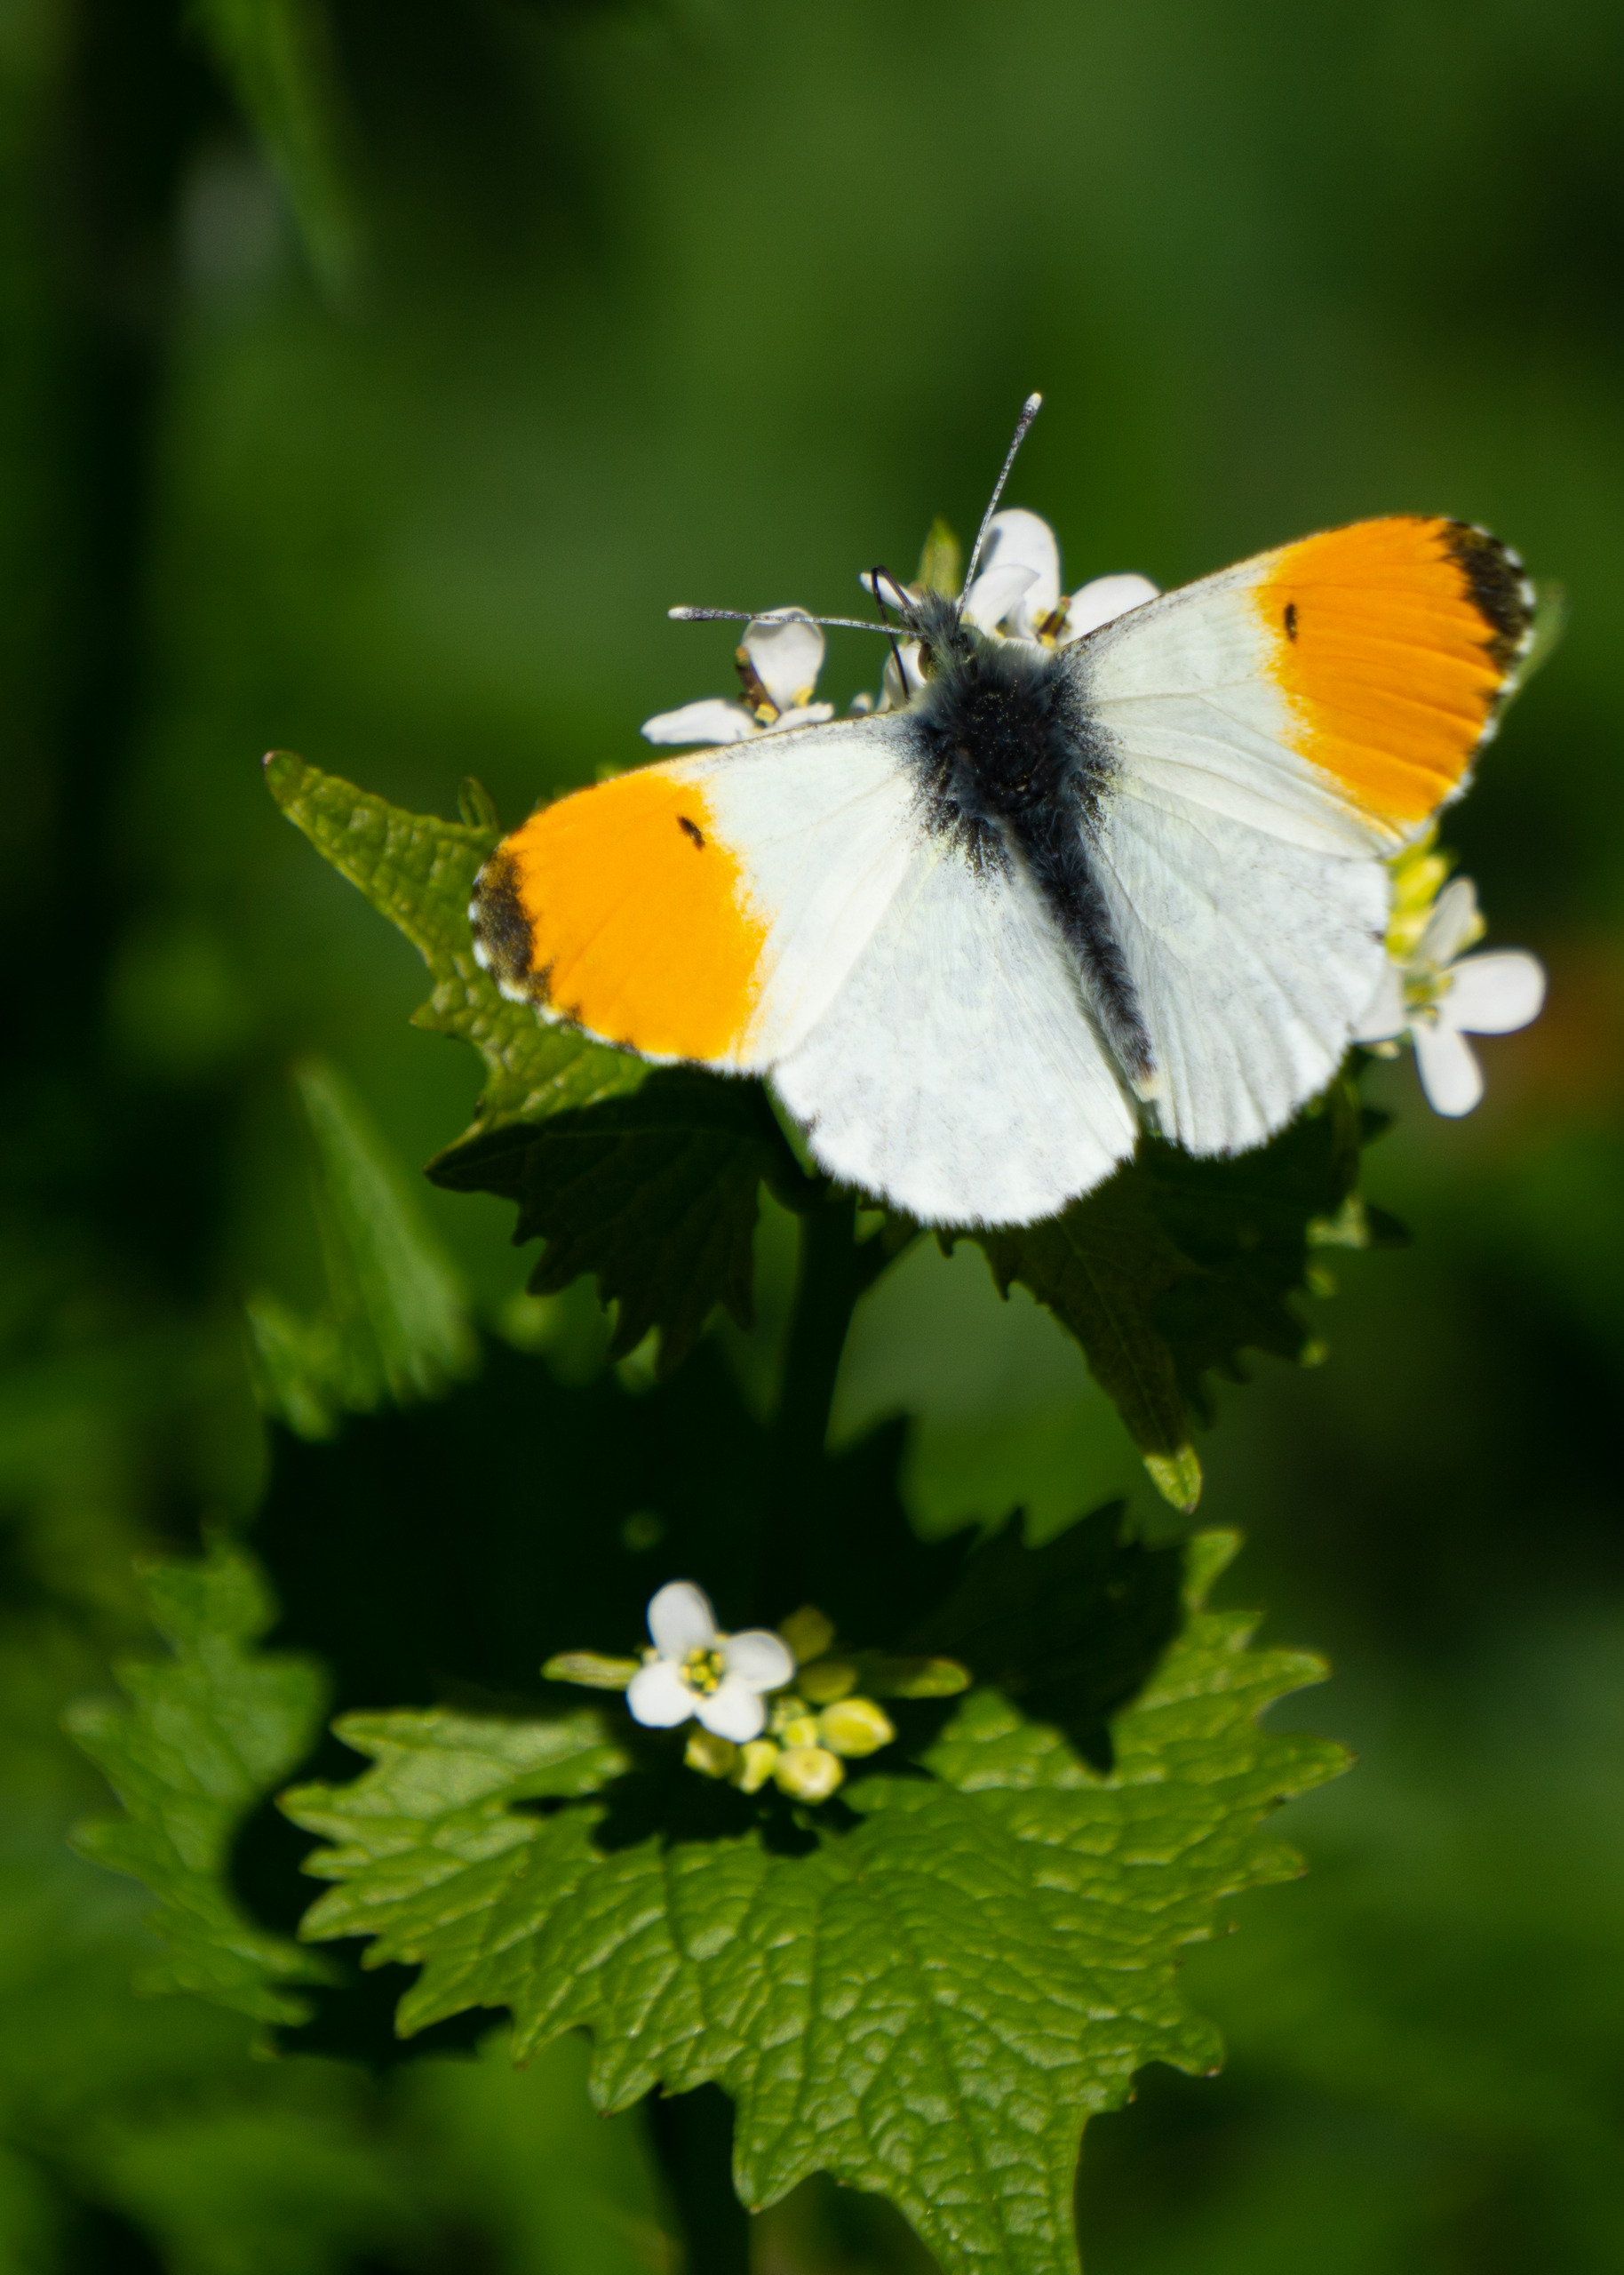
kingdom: Animalia
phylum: Arthropoda
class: Insecta
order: Lepidoptera
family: Pieridae
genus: Anthocharis
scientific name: Anthocharis cardamines
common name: Aurora
